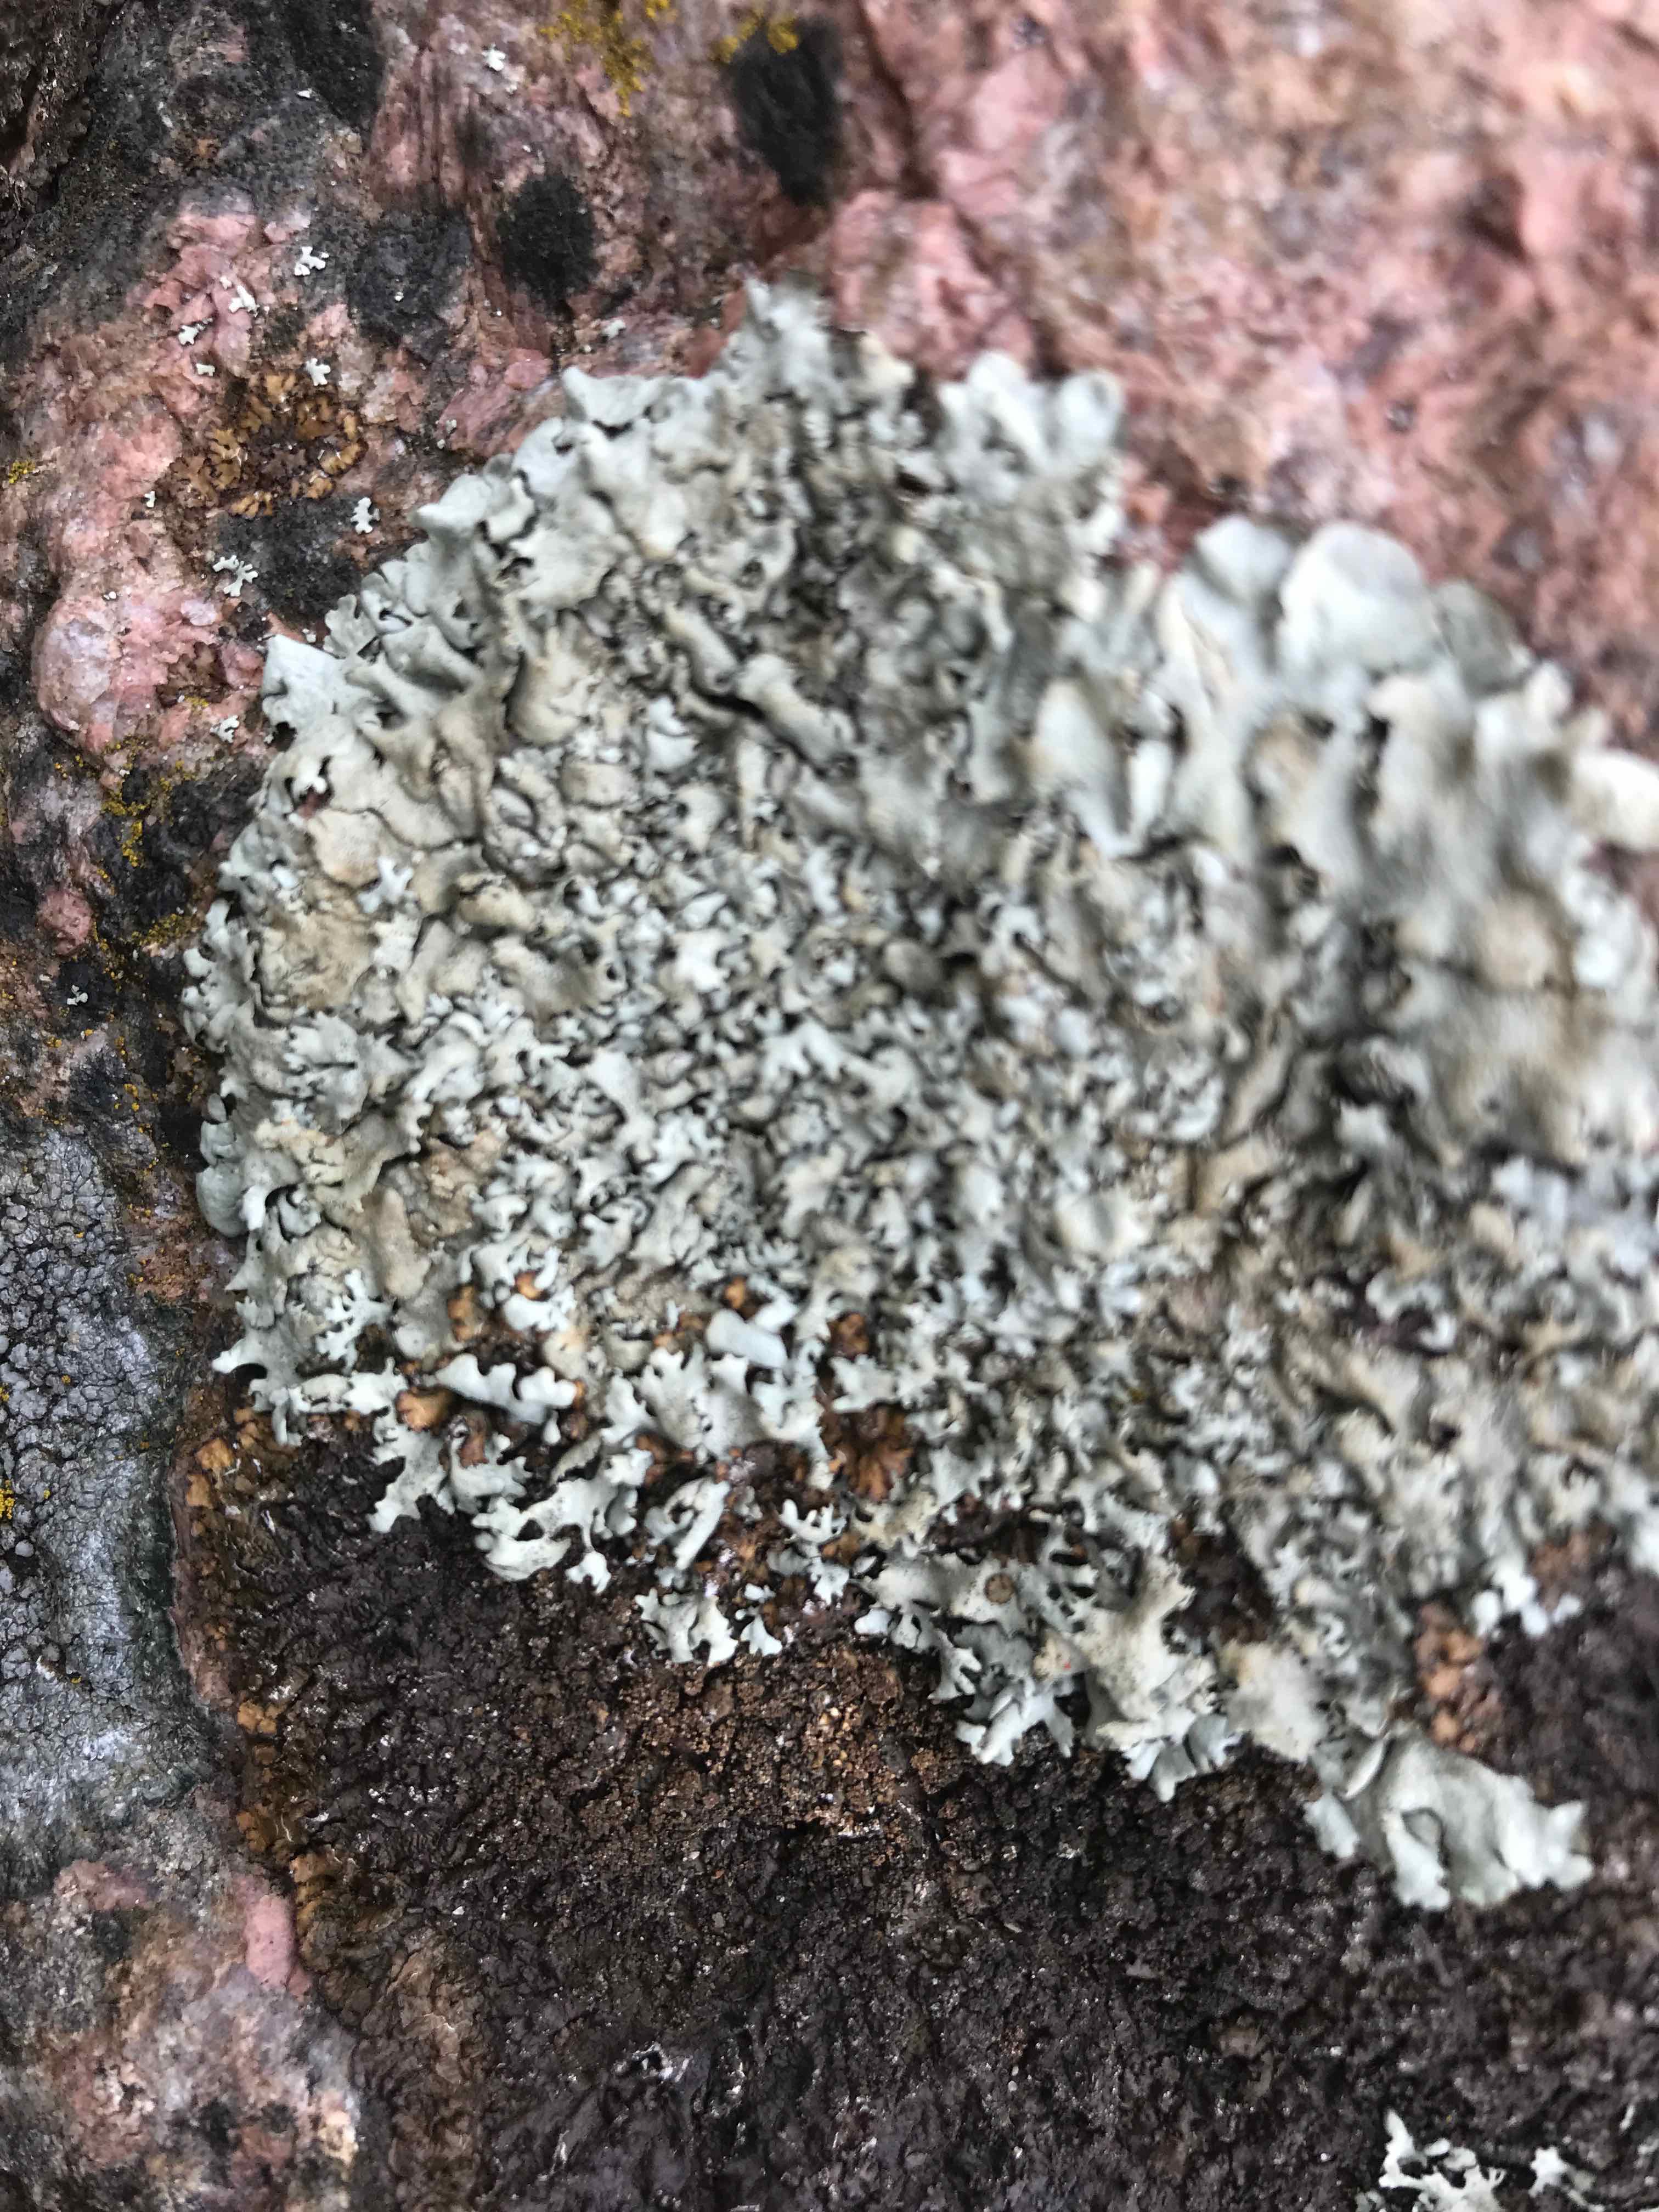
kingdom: Fungi
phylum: Ascomycota
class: Lecanoromycetes
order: Lecanorales
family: Parmeliaceae
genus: Xanthoparmelia
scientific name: Xanthoparmelia
